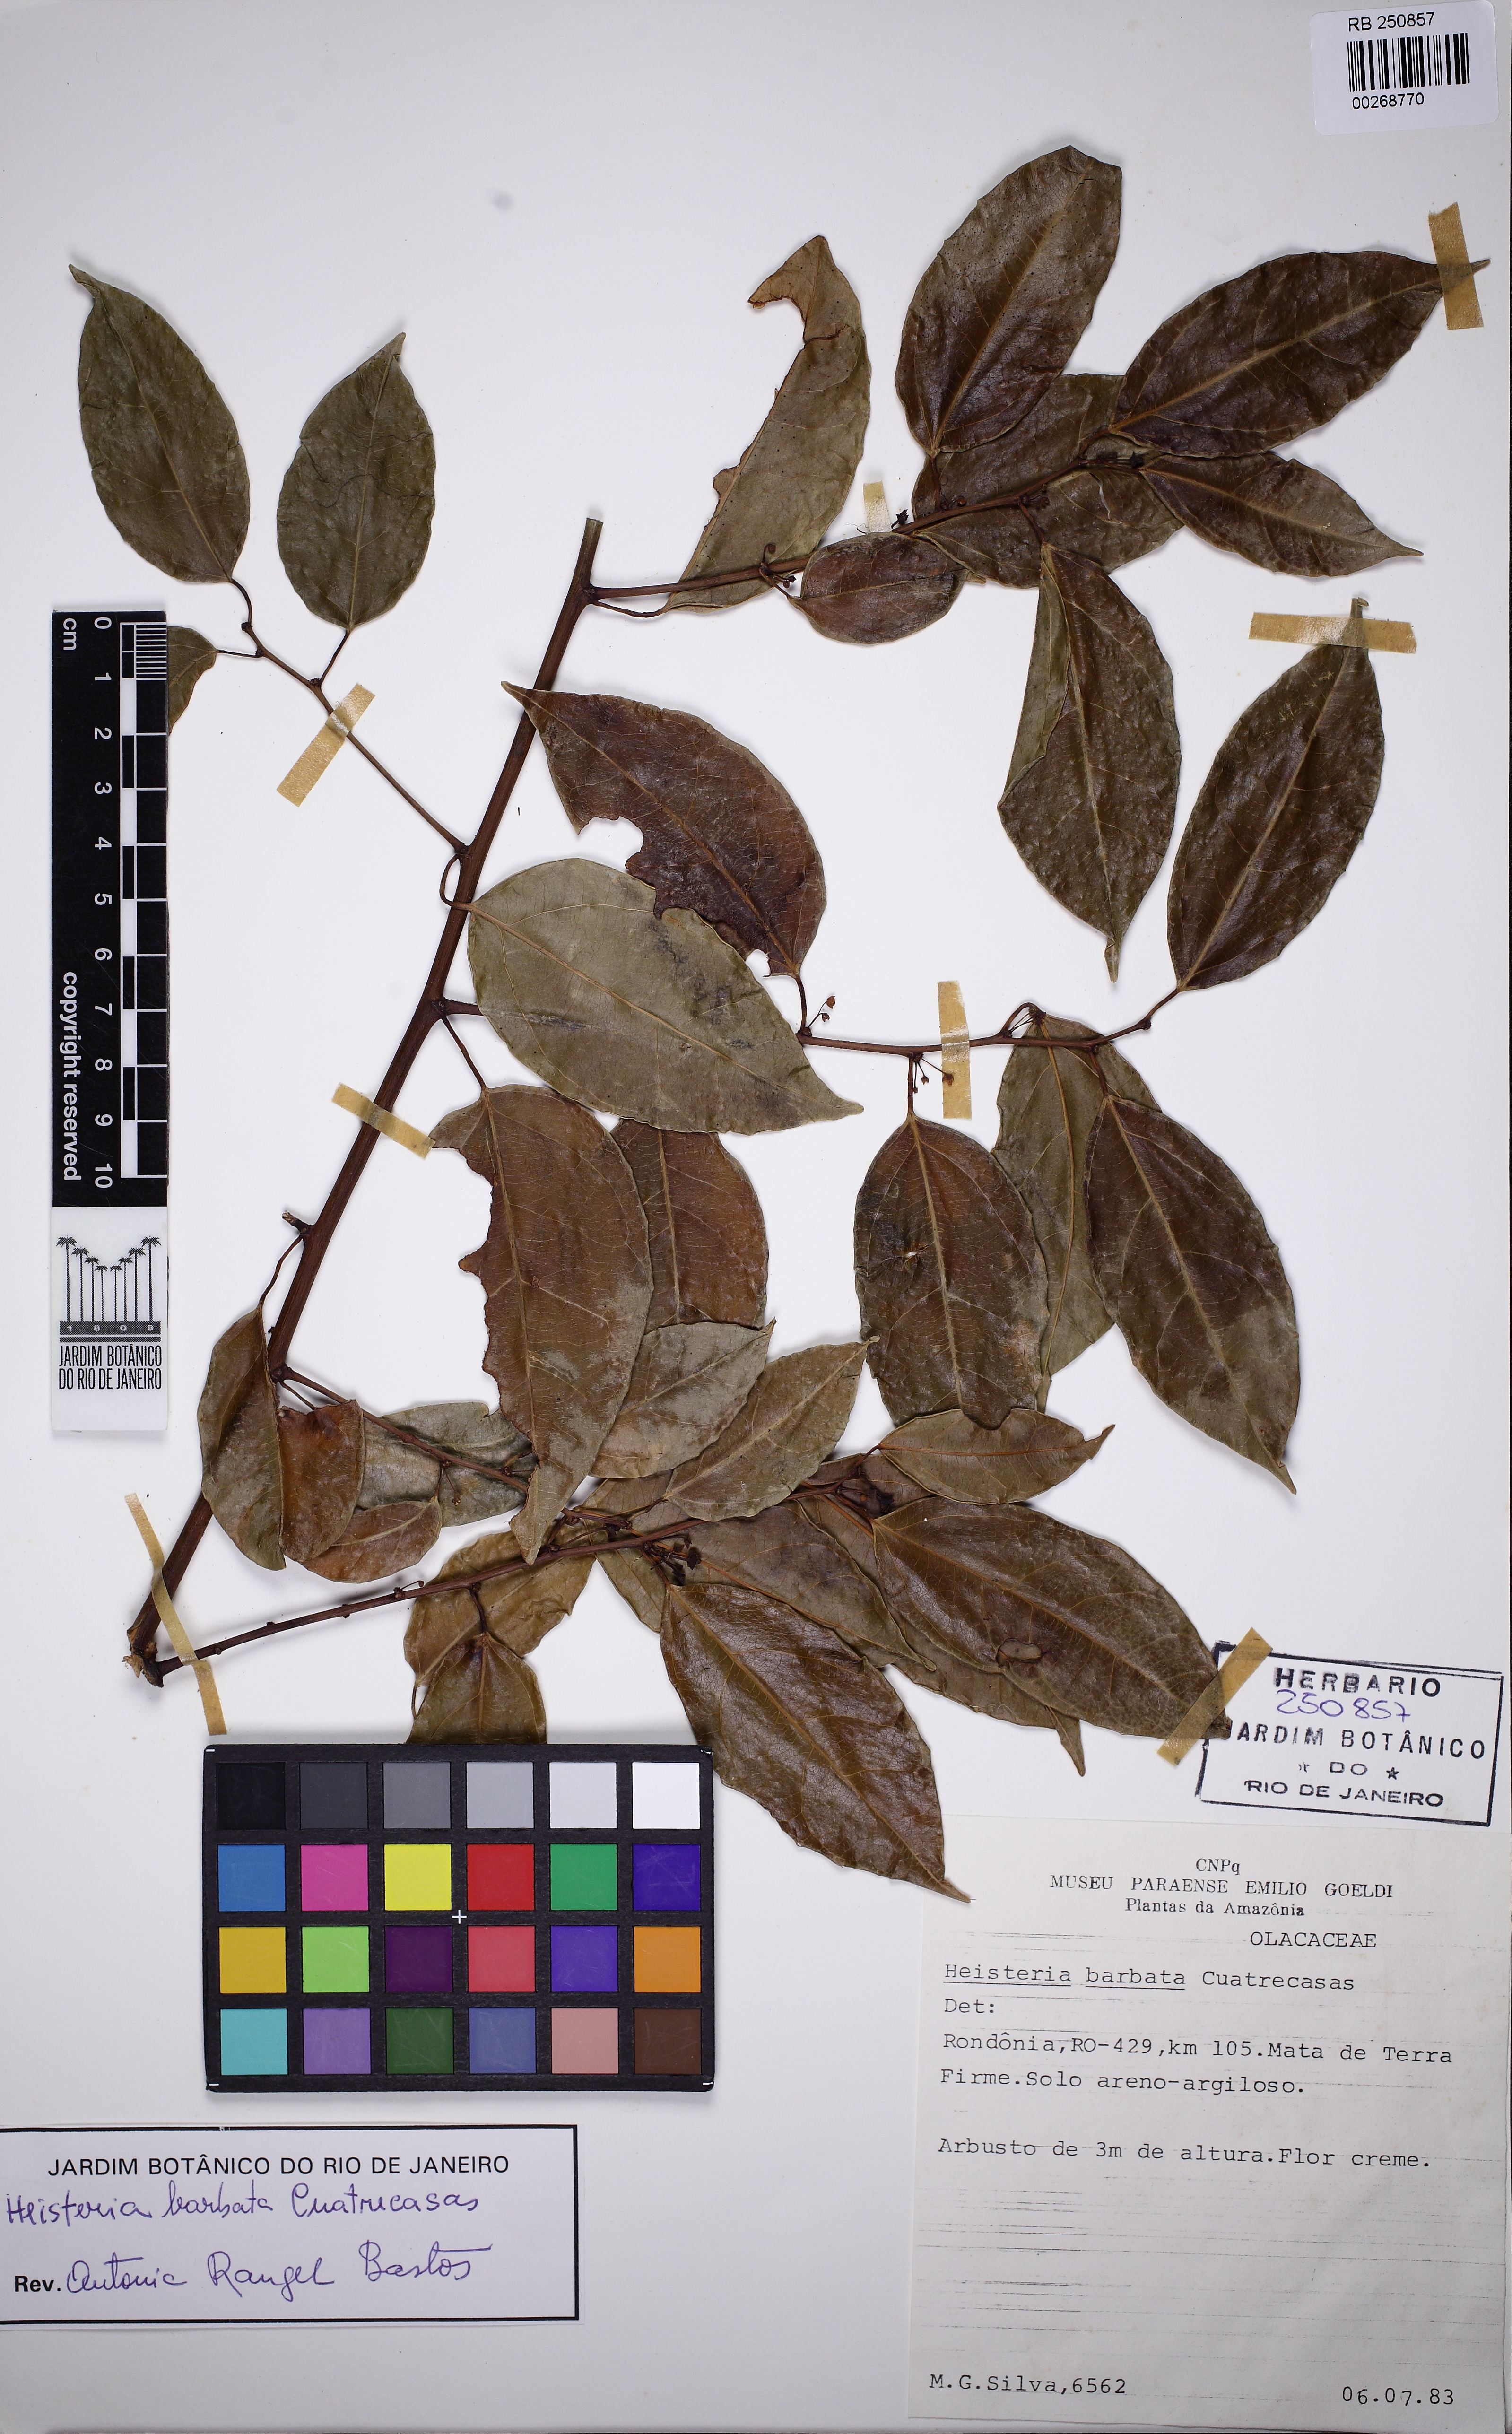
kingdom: Plantae
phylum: Tracheophyta
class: Magnoliopsida
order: Santalales
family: Erythropalaceae
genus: Heisteria
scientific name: Heisteria barbata
